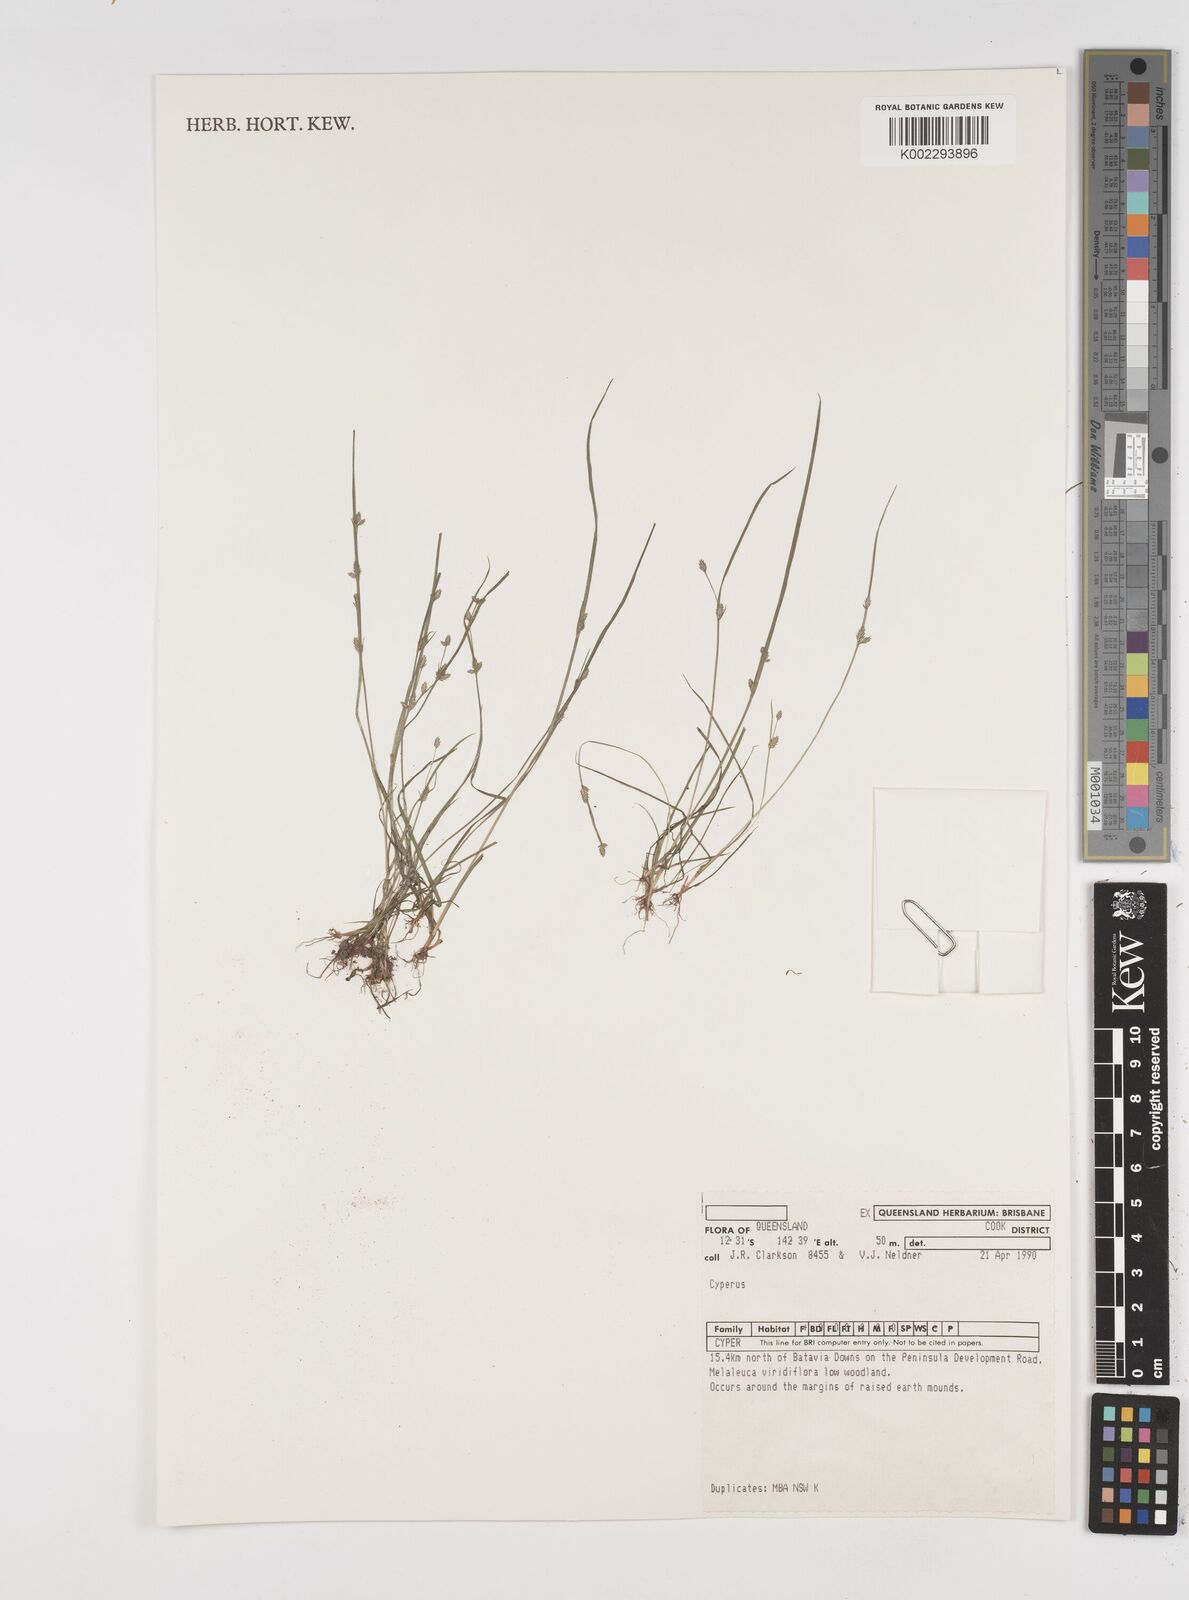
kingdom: Plantae
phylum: Tracheophyta
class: Liliopsida
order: Poales
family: Cyperaceae
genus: Cyperus
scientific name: Cyperus
